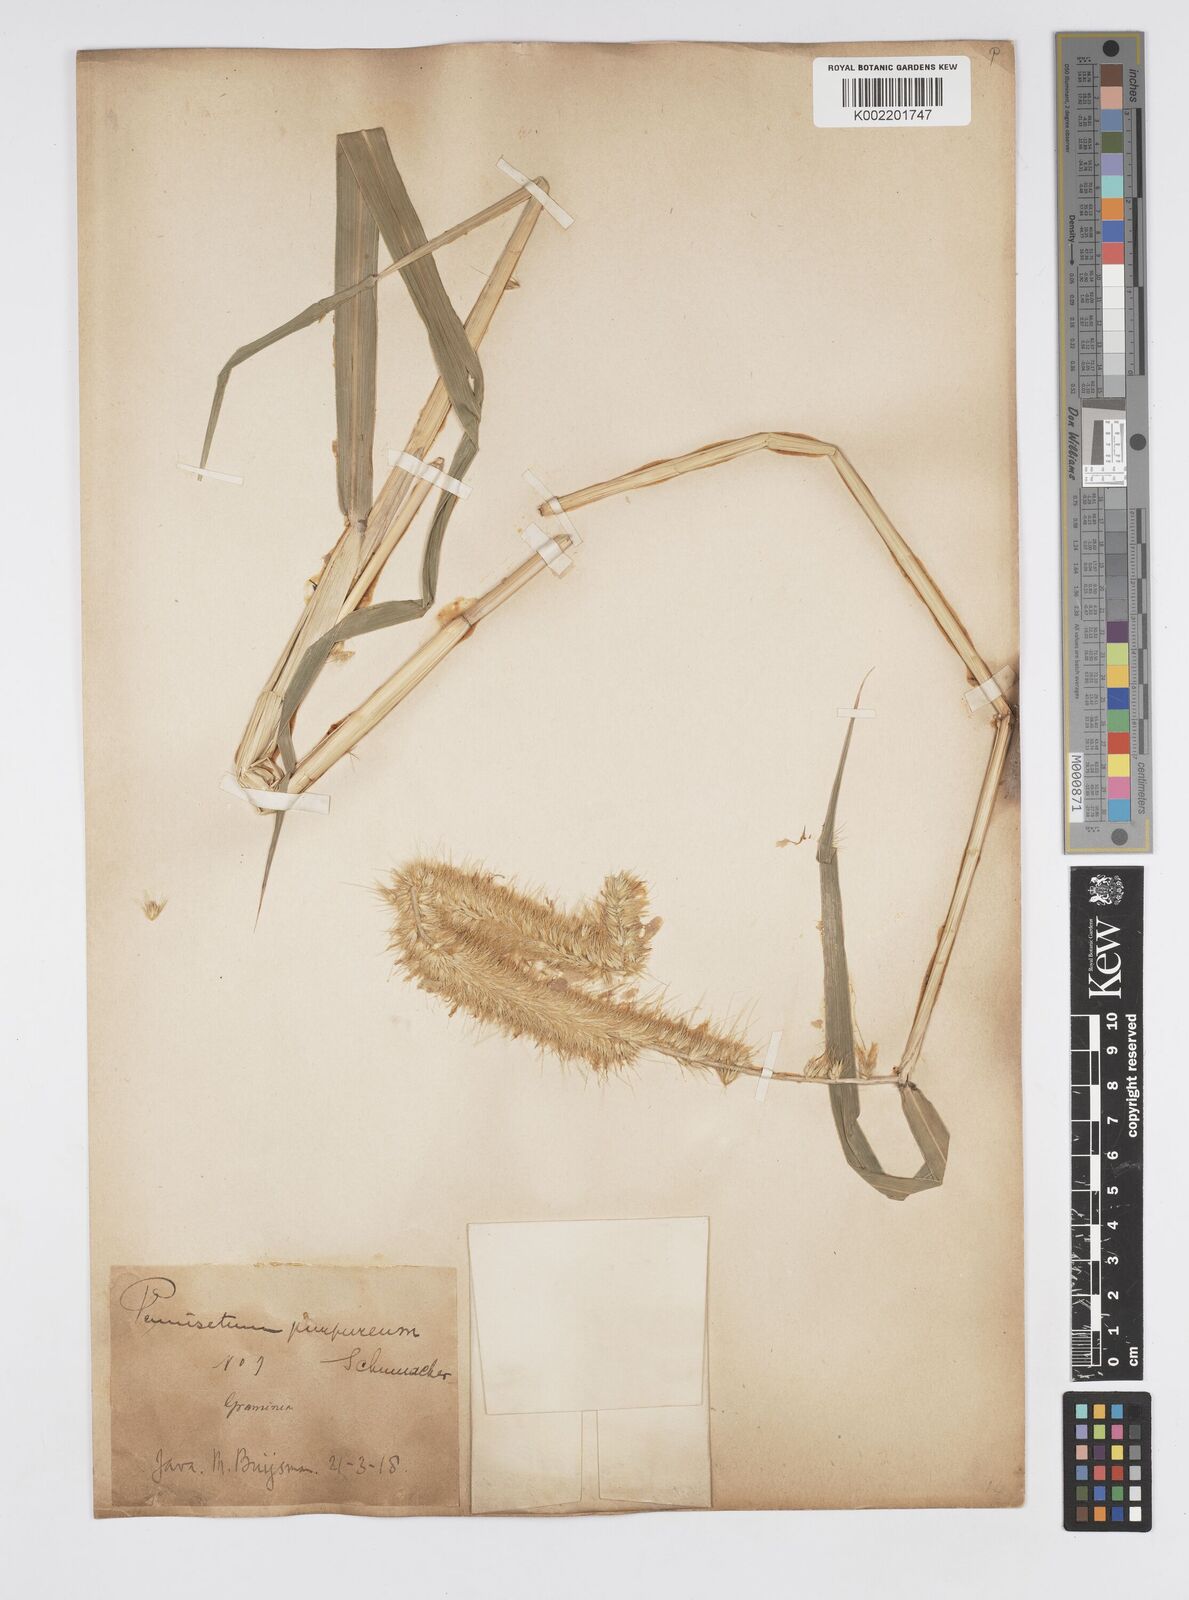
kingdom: Plantae
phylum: Tracheophyta
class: Liliopsida
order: Poales
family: Poaceae
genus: Cenchrus
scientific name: Cenchrus purpureus
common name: Elephant grass
